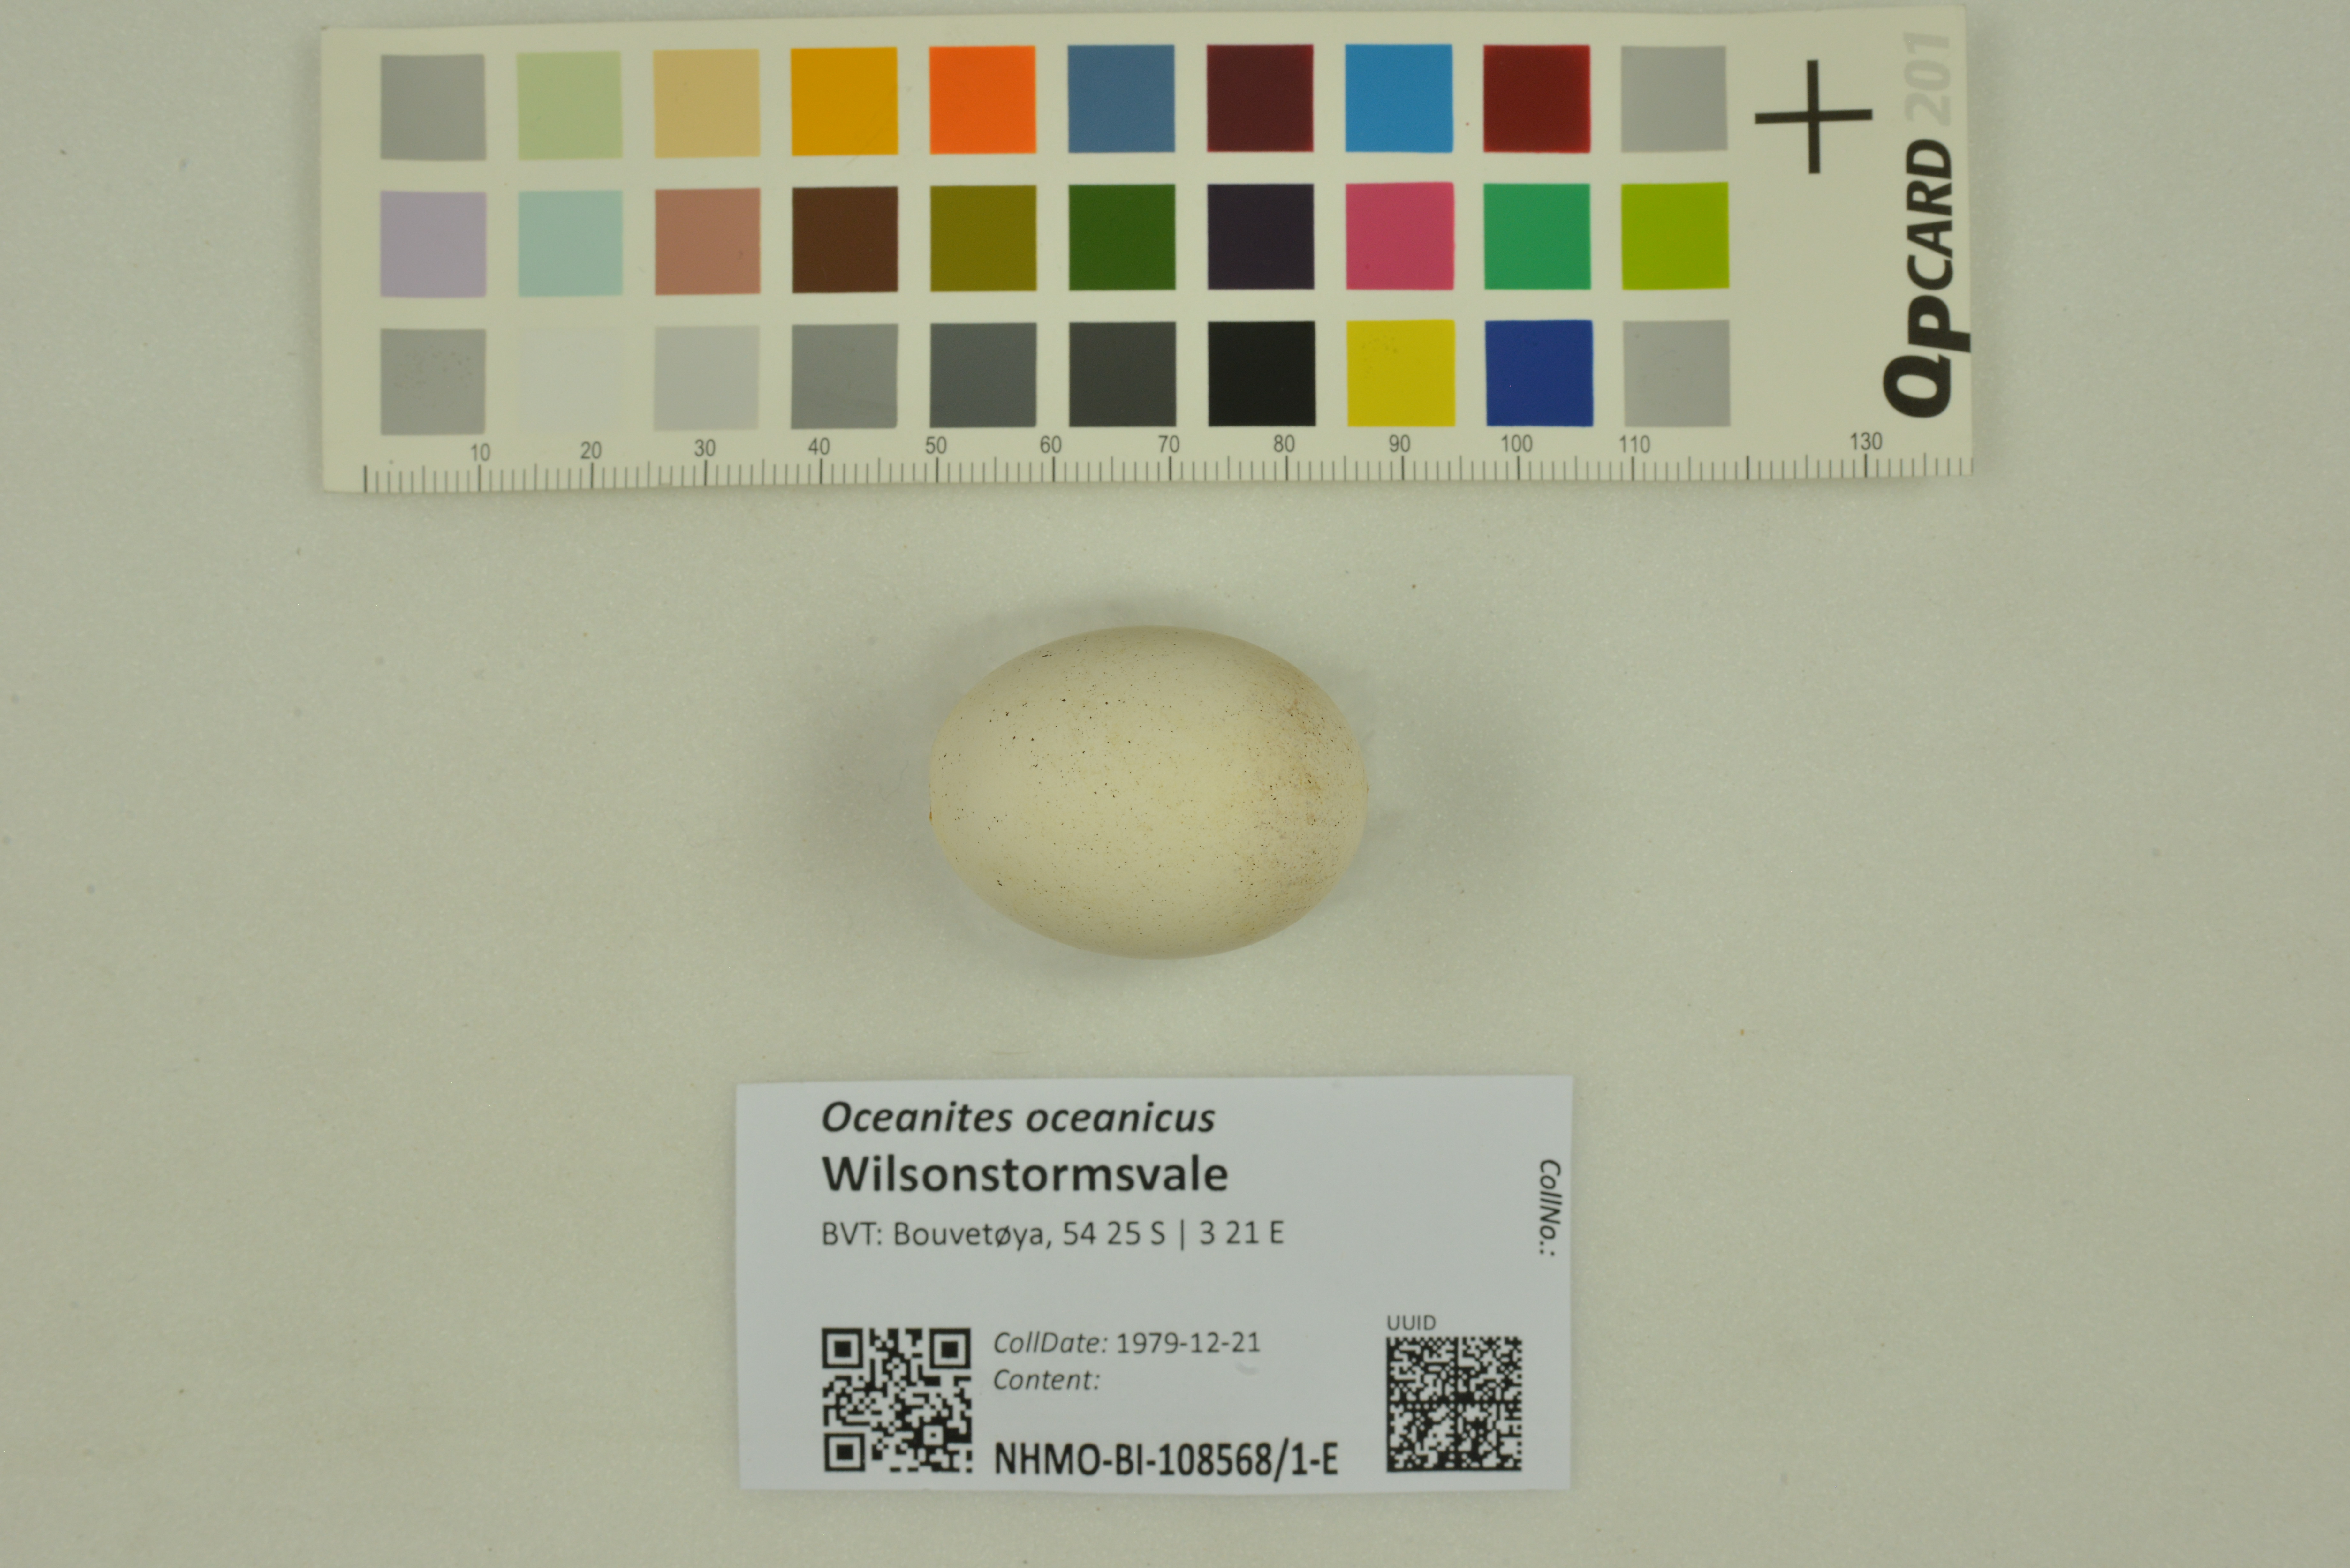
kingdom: Animalia
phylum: Chordata
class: Aves
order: Procellariiformes
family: Hydrobatidae
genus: Oceanites
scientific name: Oceanites oceanicus
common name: Wilson's storm petrel
